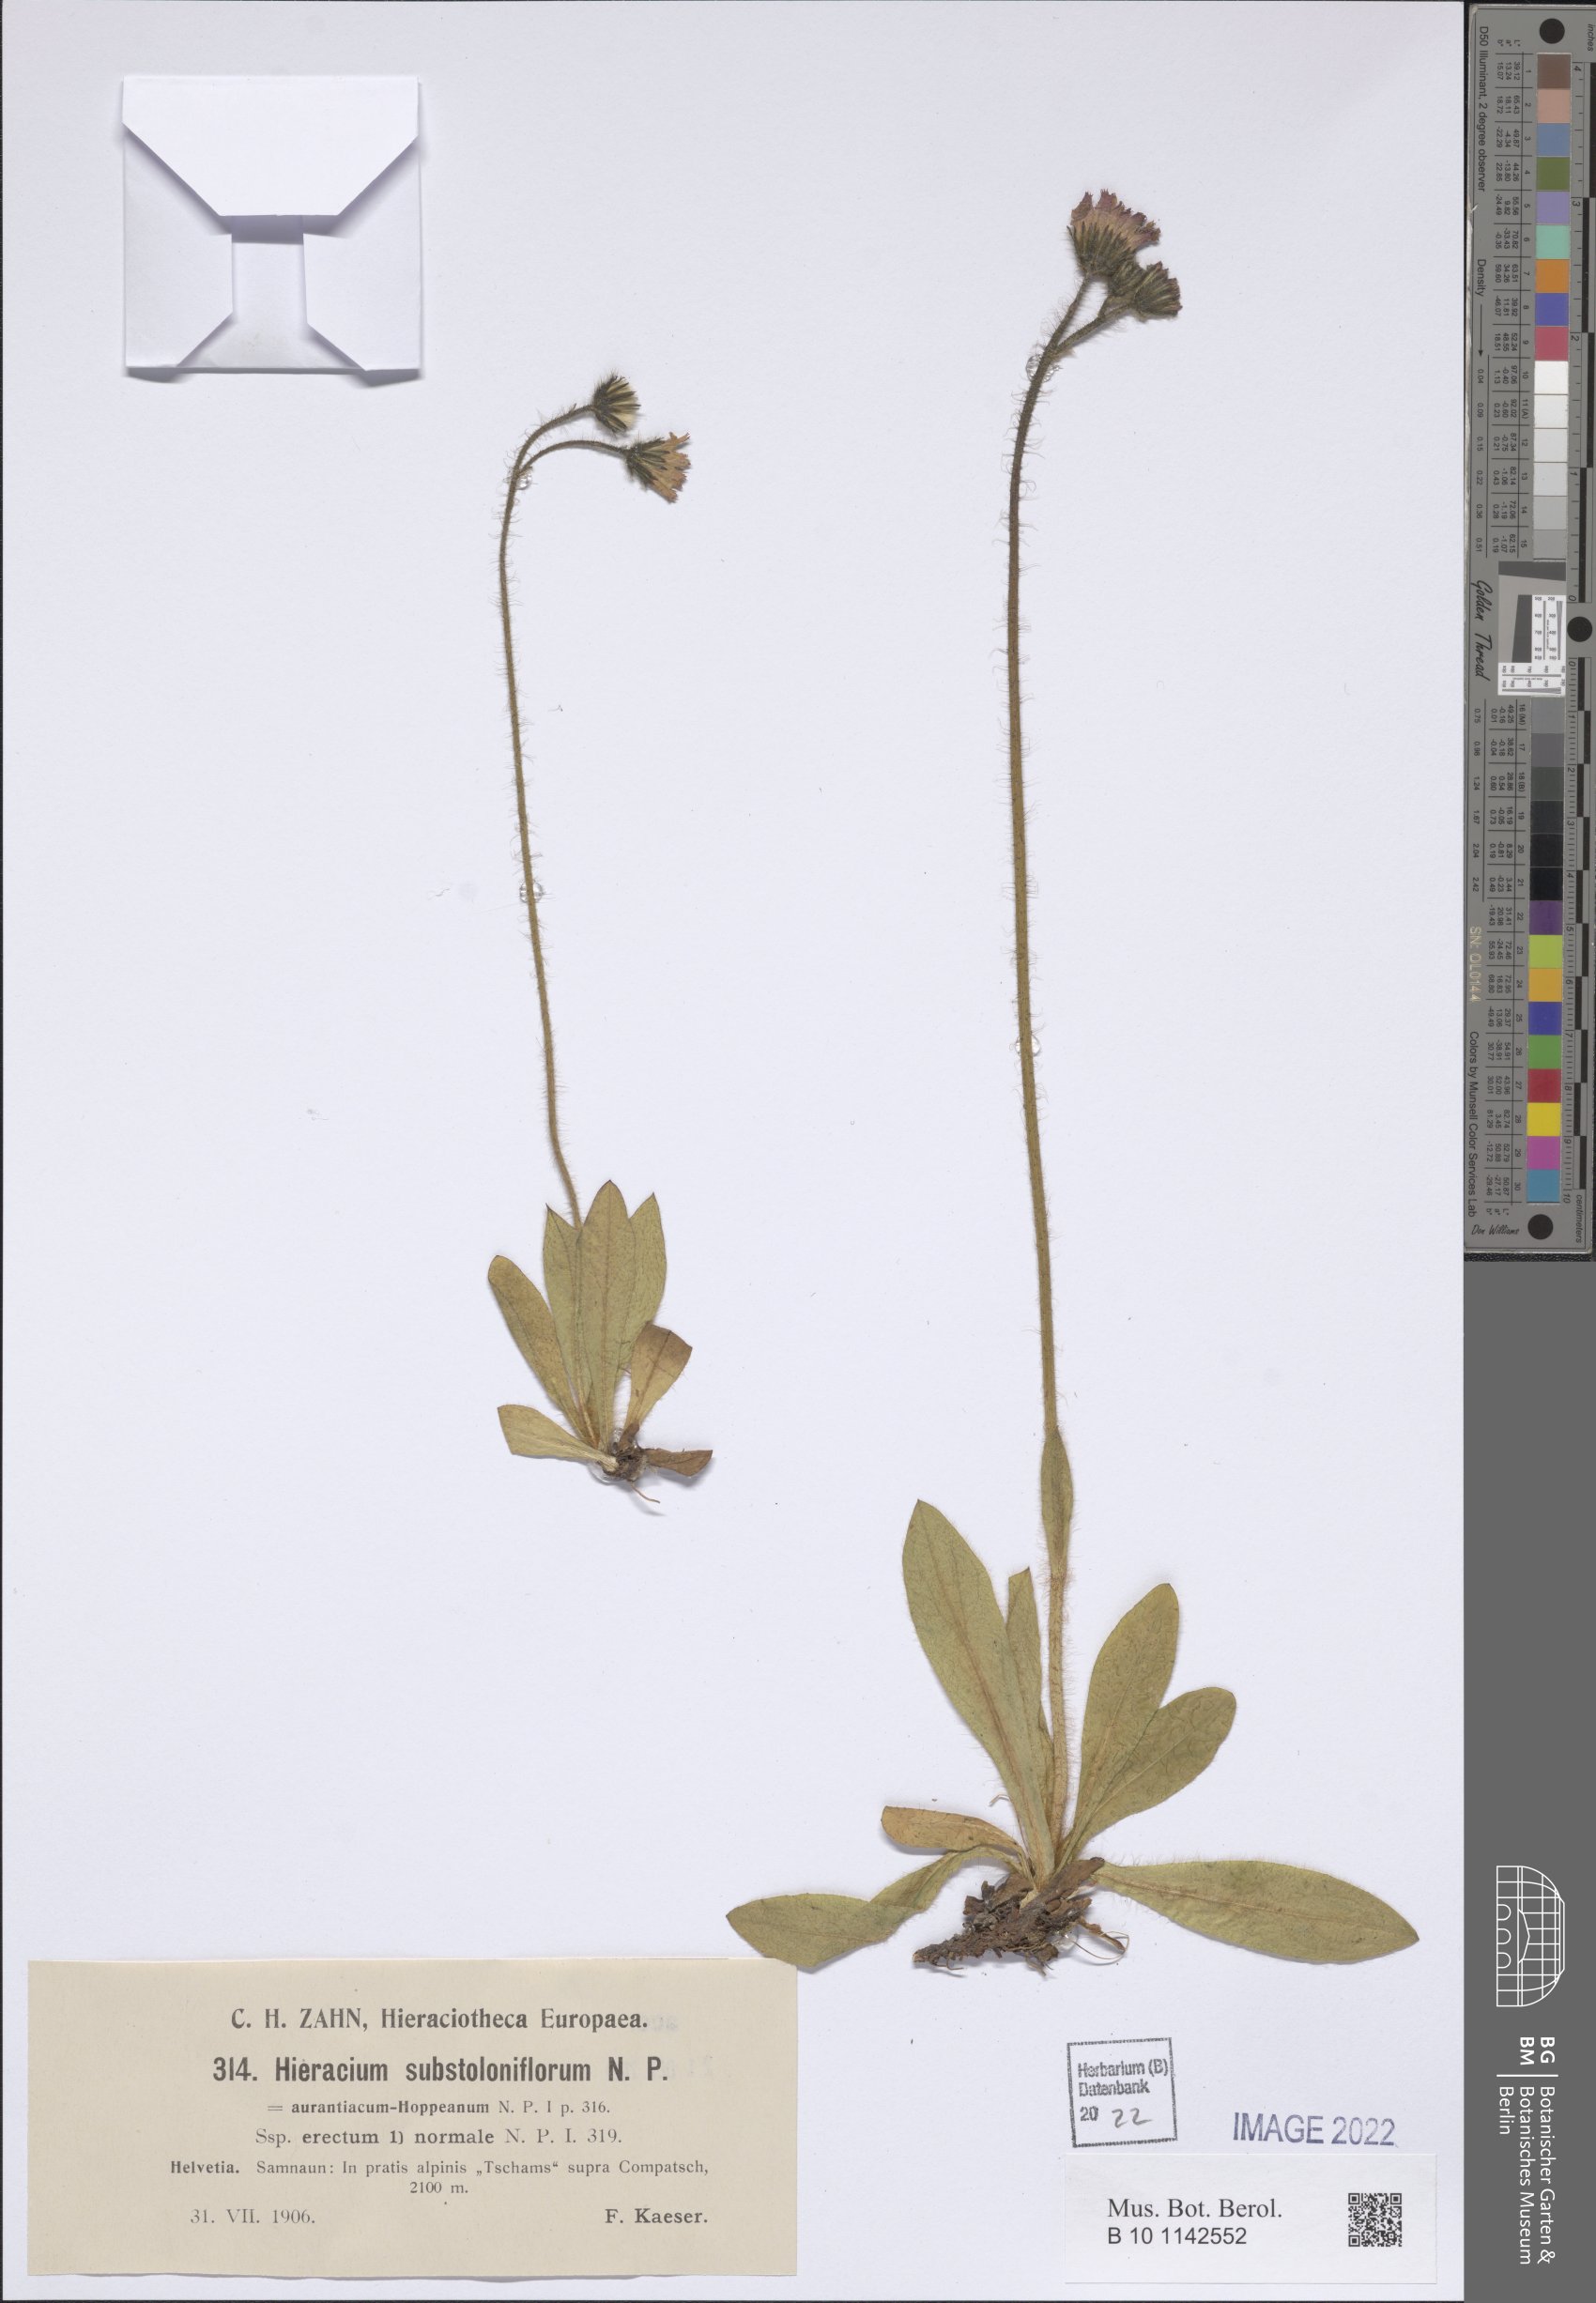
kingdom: Plantae
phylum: Tracheophyta
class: Magnoliopsida
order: Asterales
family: Asteraceae
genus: Pilosella
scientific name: Pilosella rubra
